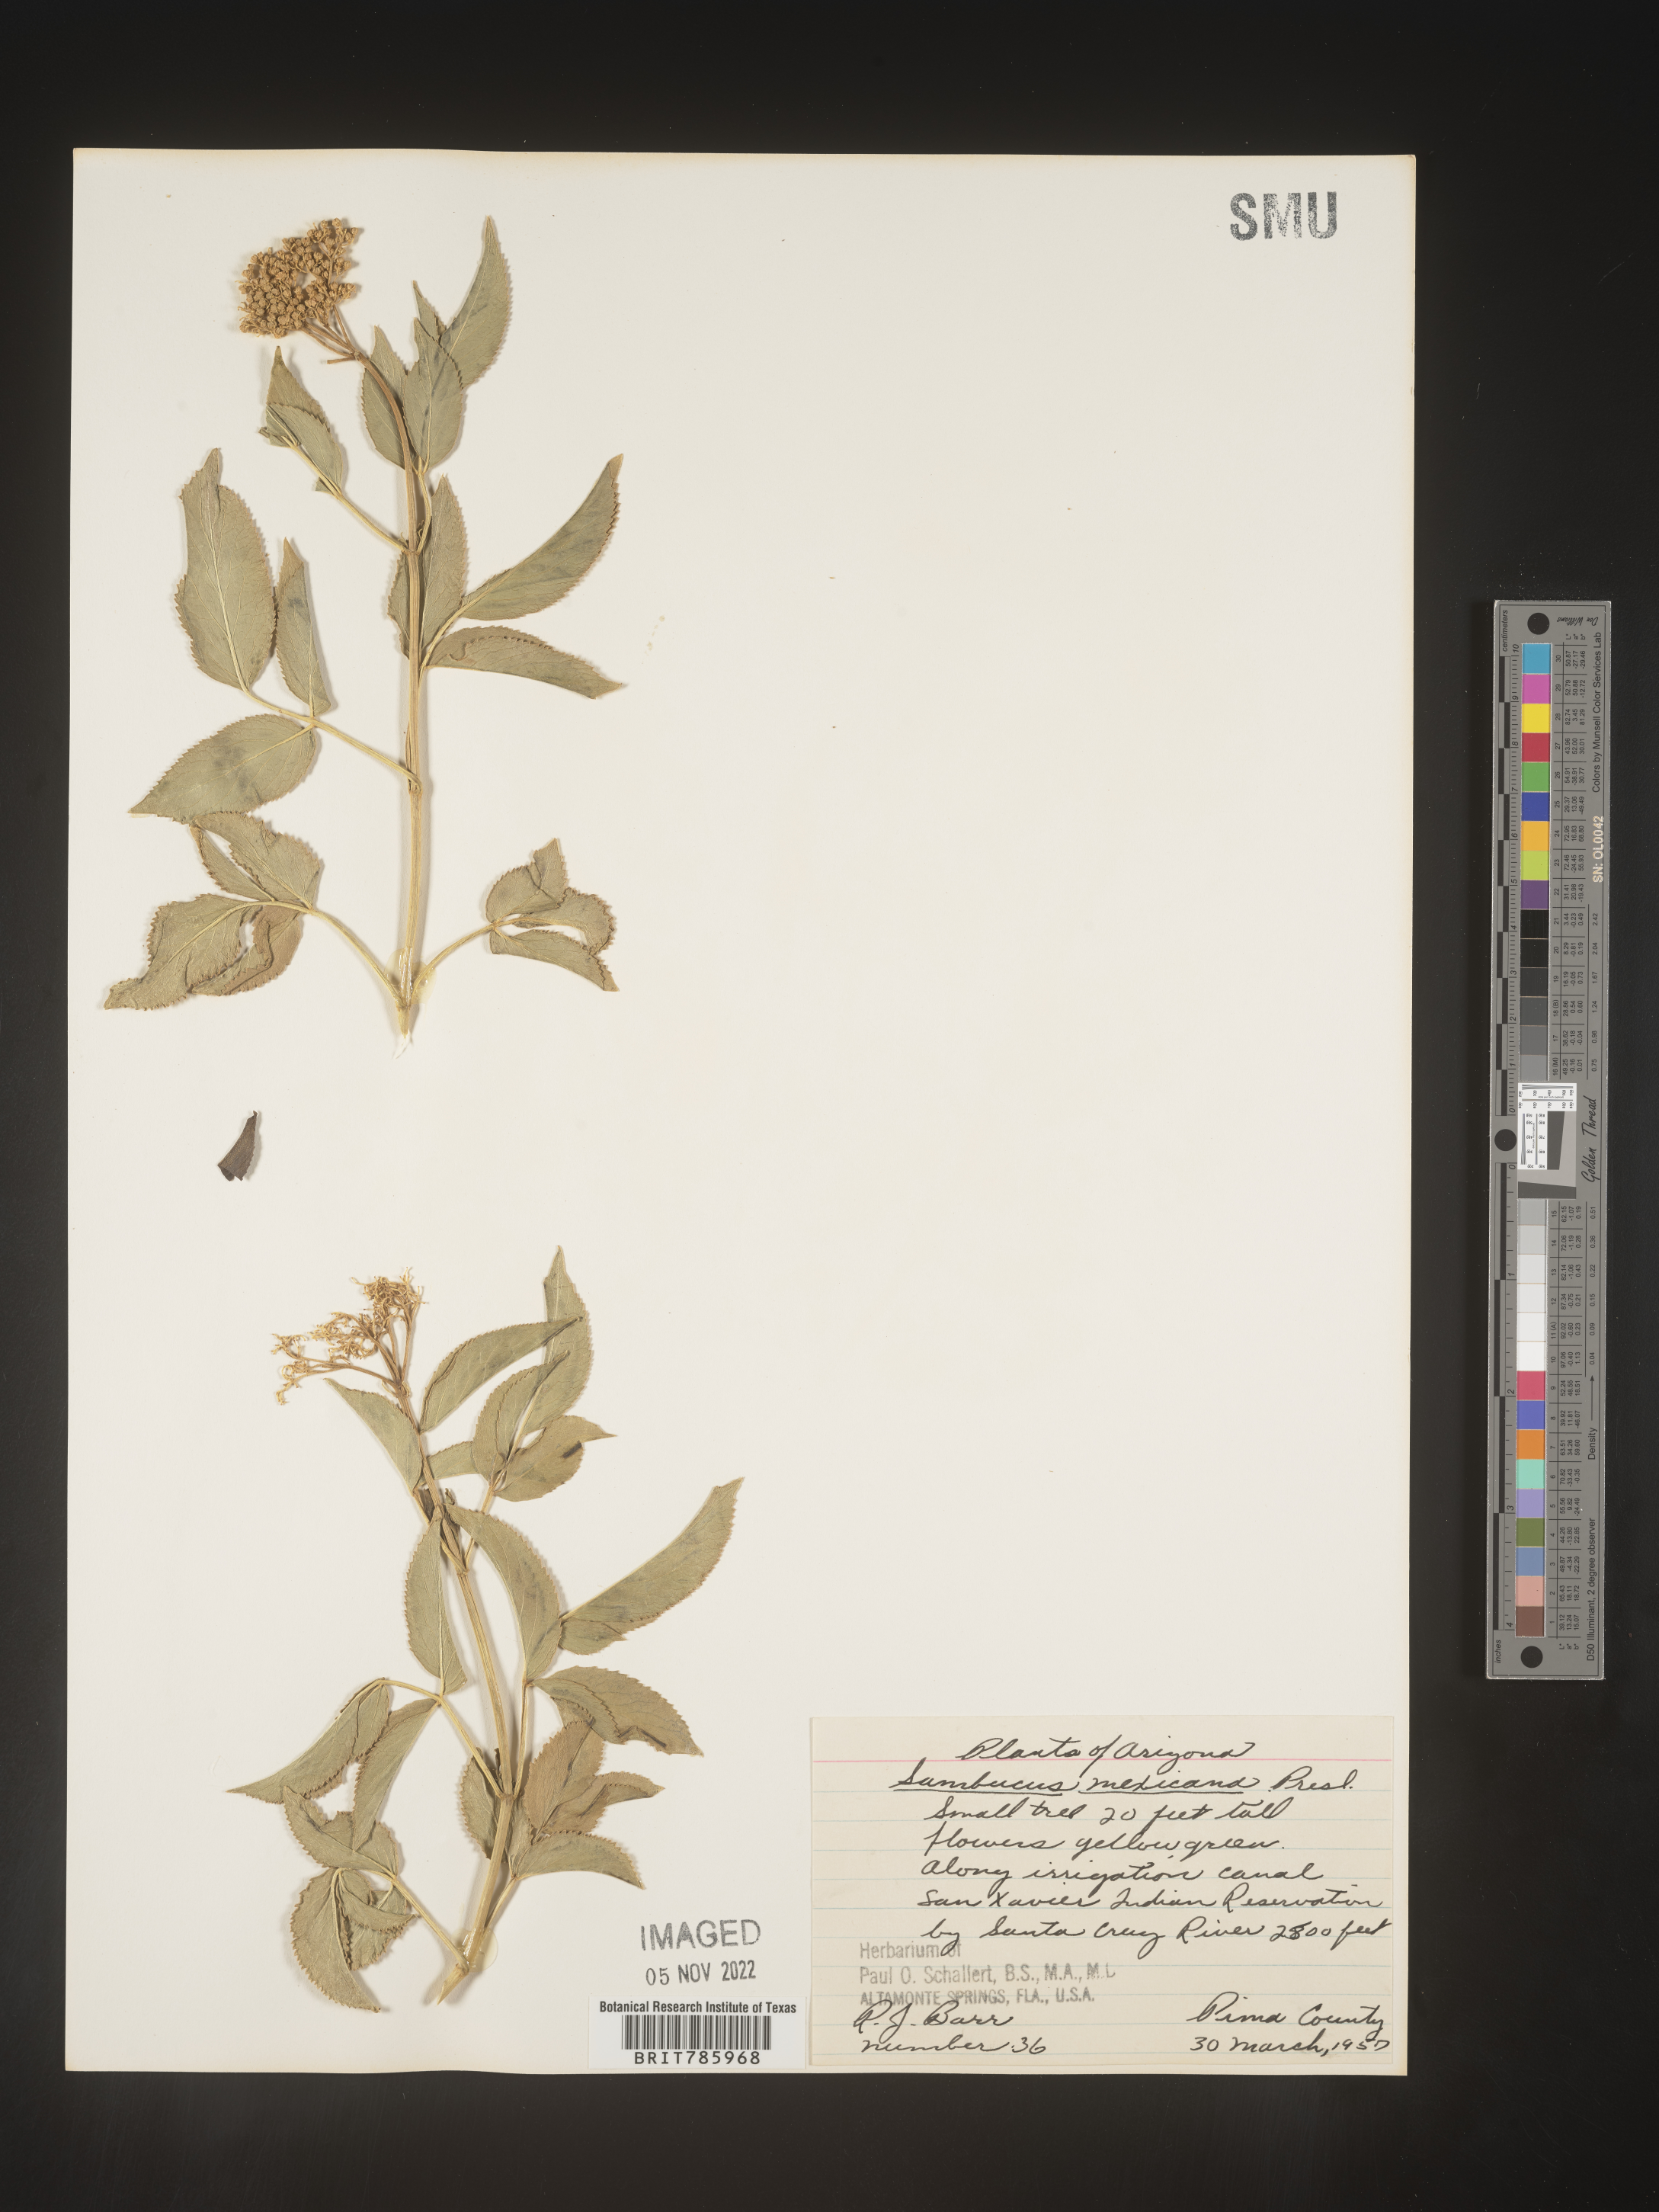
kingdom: Plantae
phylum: Tracheophyta
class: Magnoliopsida
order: Dipsacales
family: Viburnaceae
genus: Sambucus
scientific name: Sambucus mexicana
